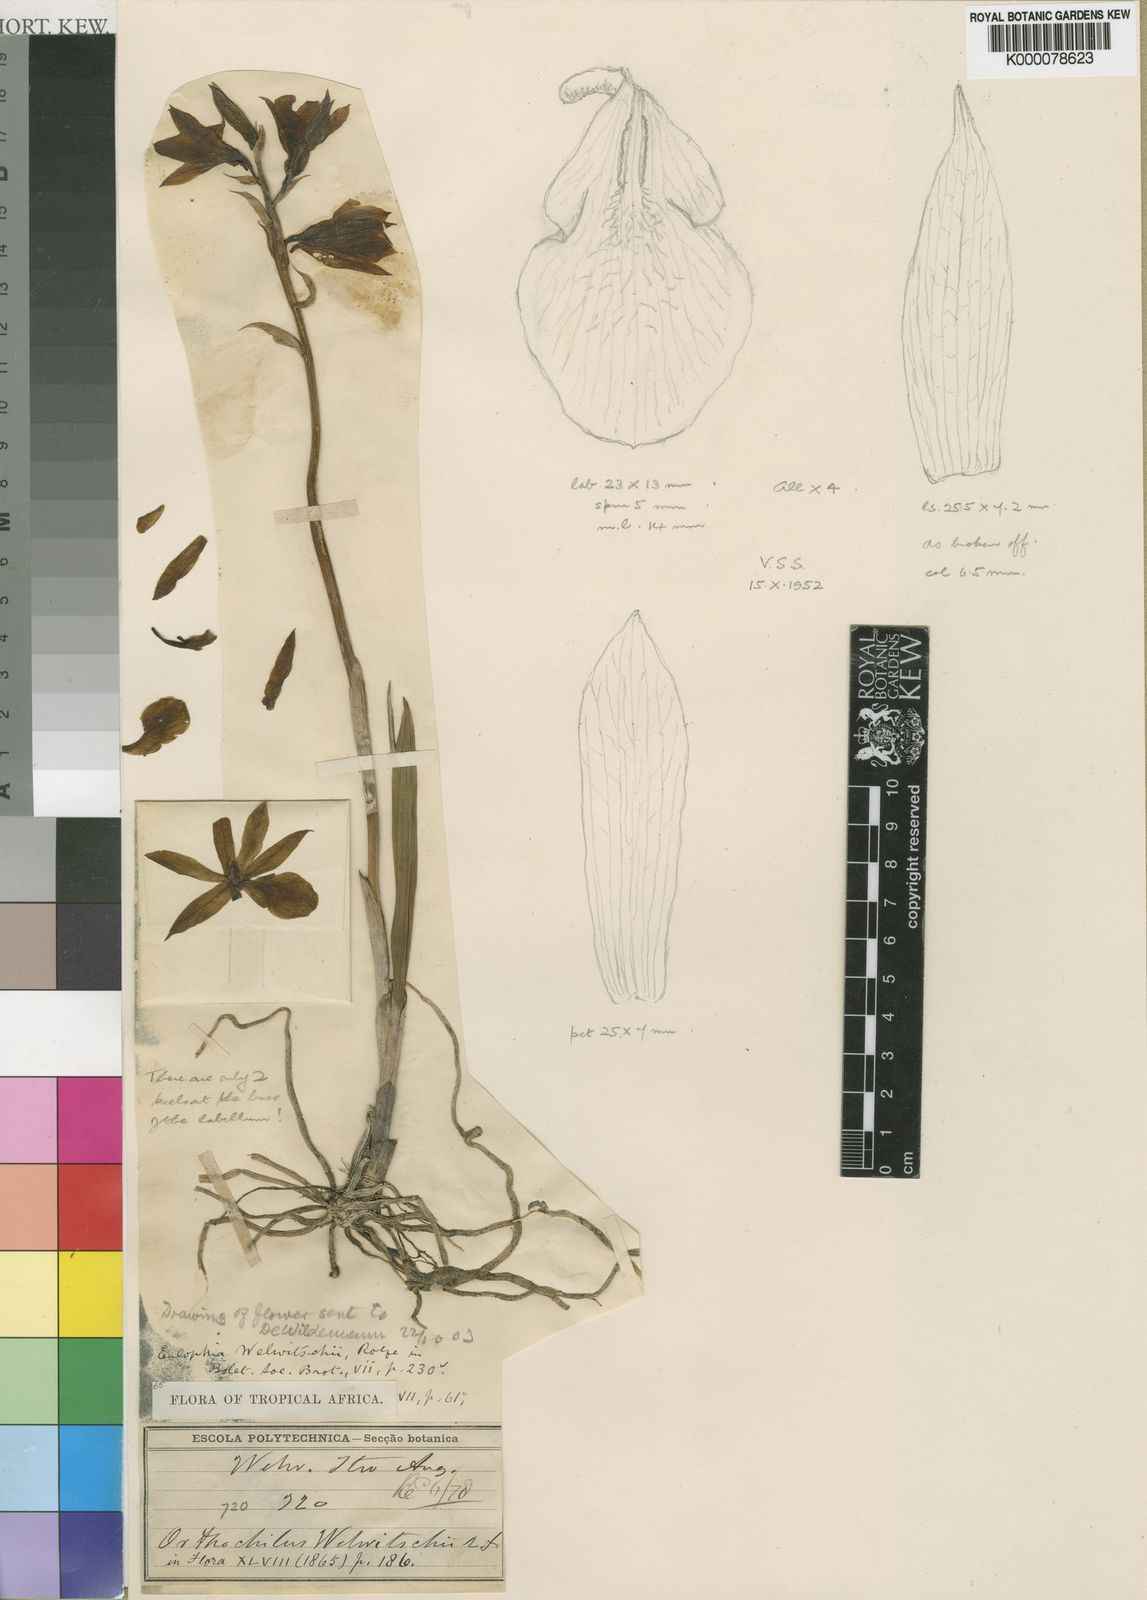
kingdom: Plantae
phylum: Tracheophyta
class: Liliopsida
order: Asparagales
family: Orchidaceae
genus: Eulophia
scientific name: Eulophia mechowii
